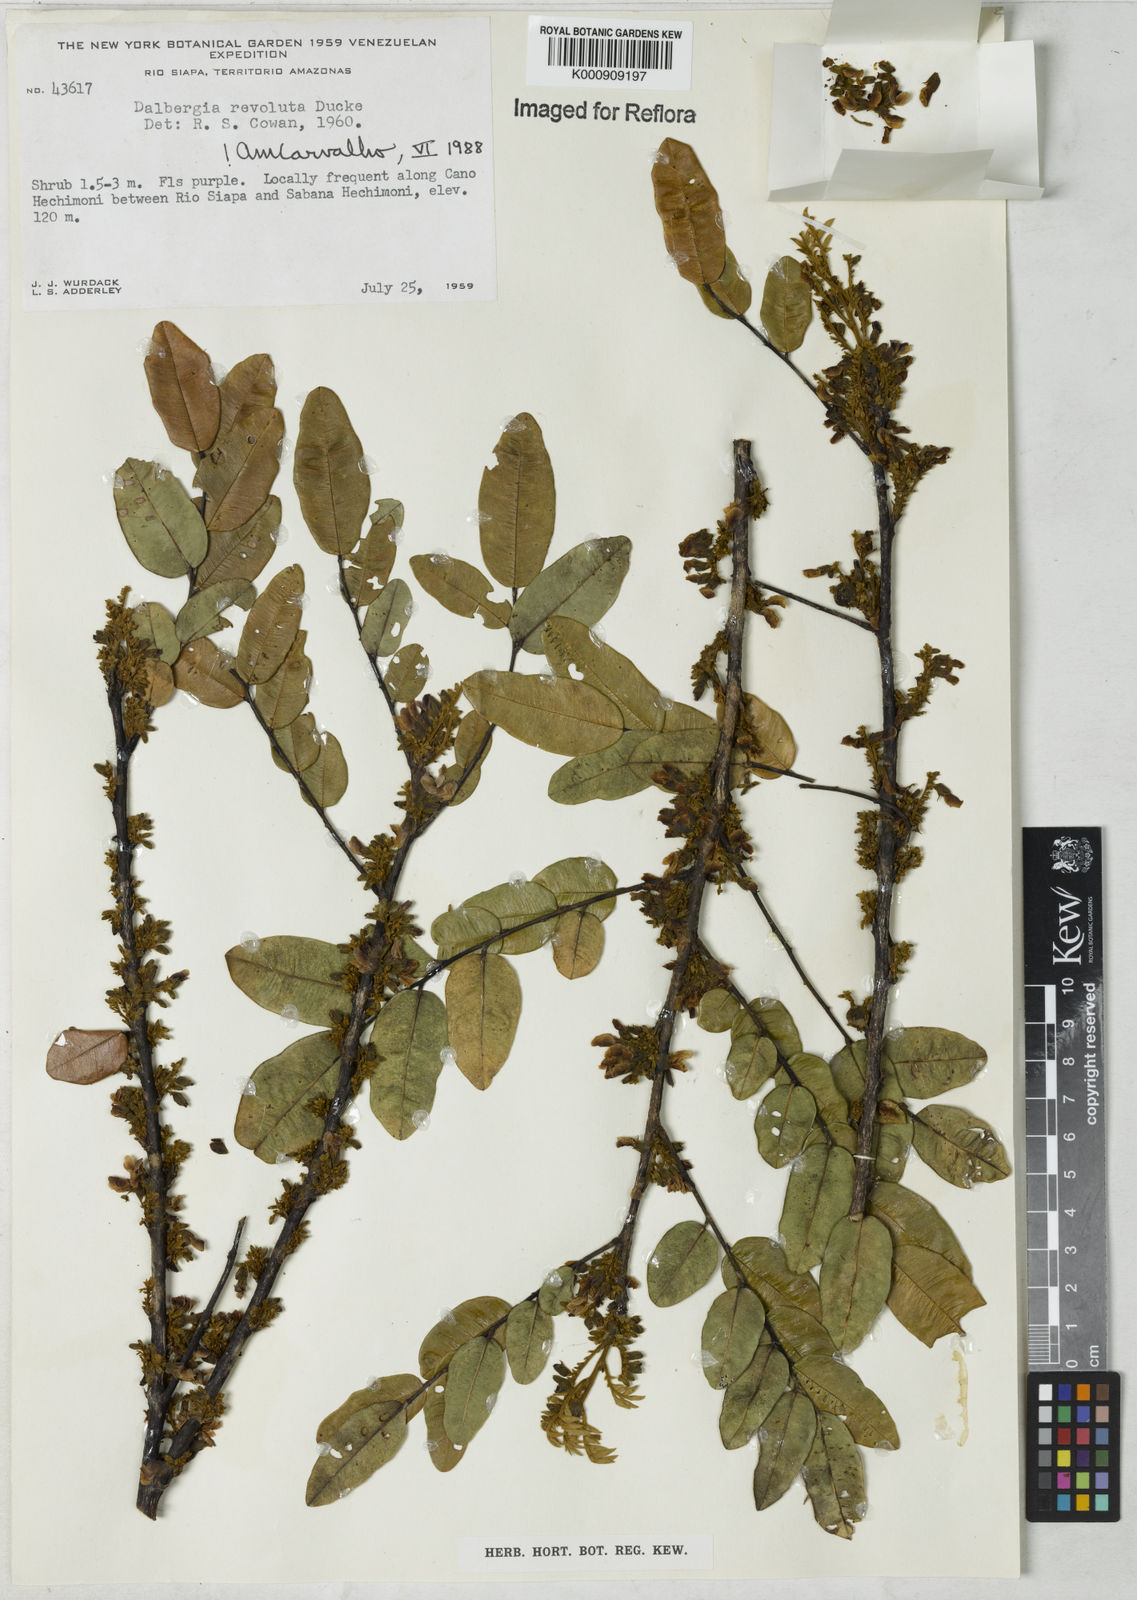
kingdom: Plantae
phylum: Tracheophyta
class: Magnoliopsida
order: Fabales
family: Fabaceae
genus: Dalbergia
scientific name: Dalbergia revoluta
